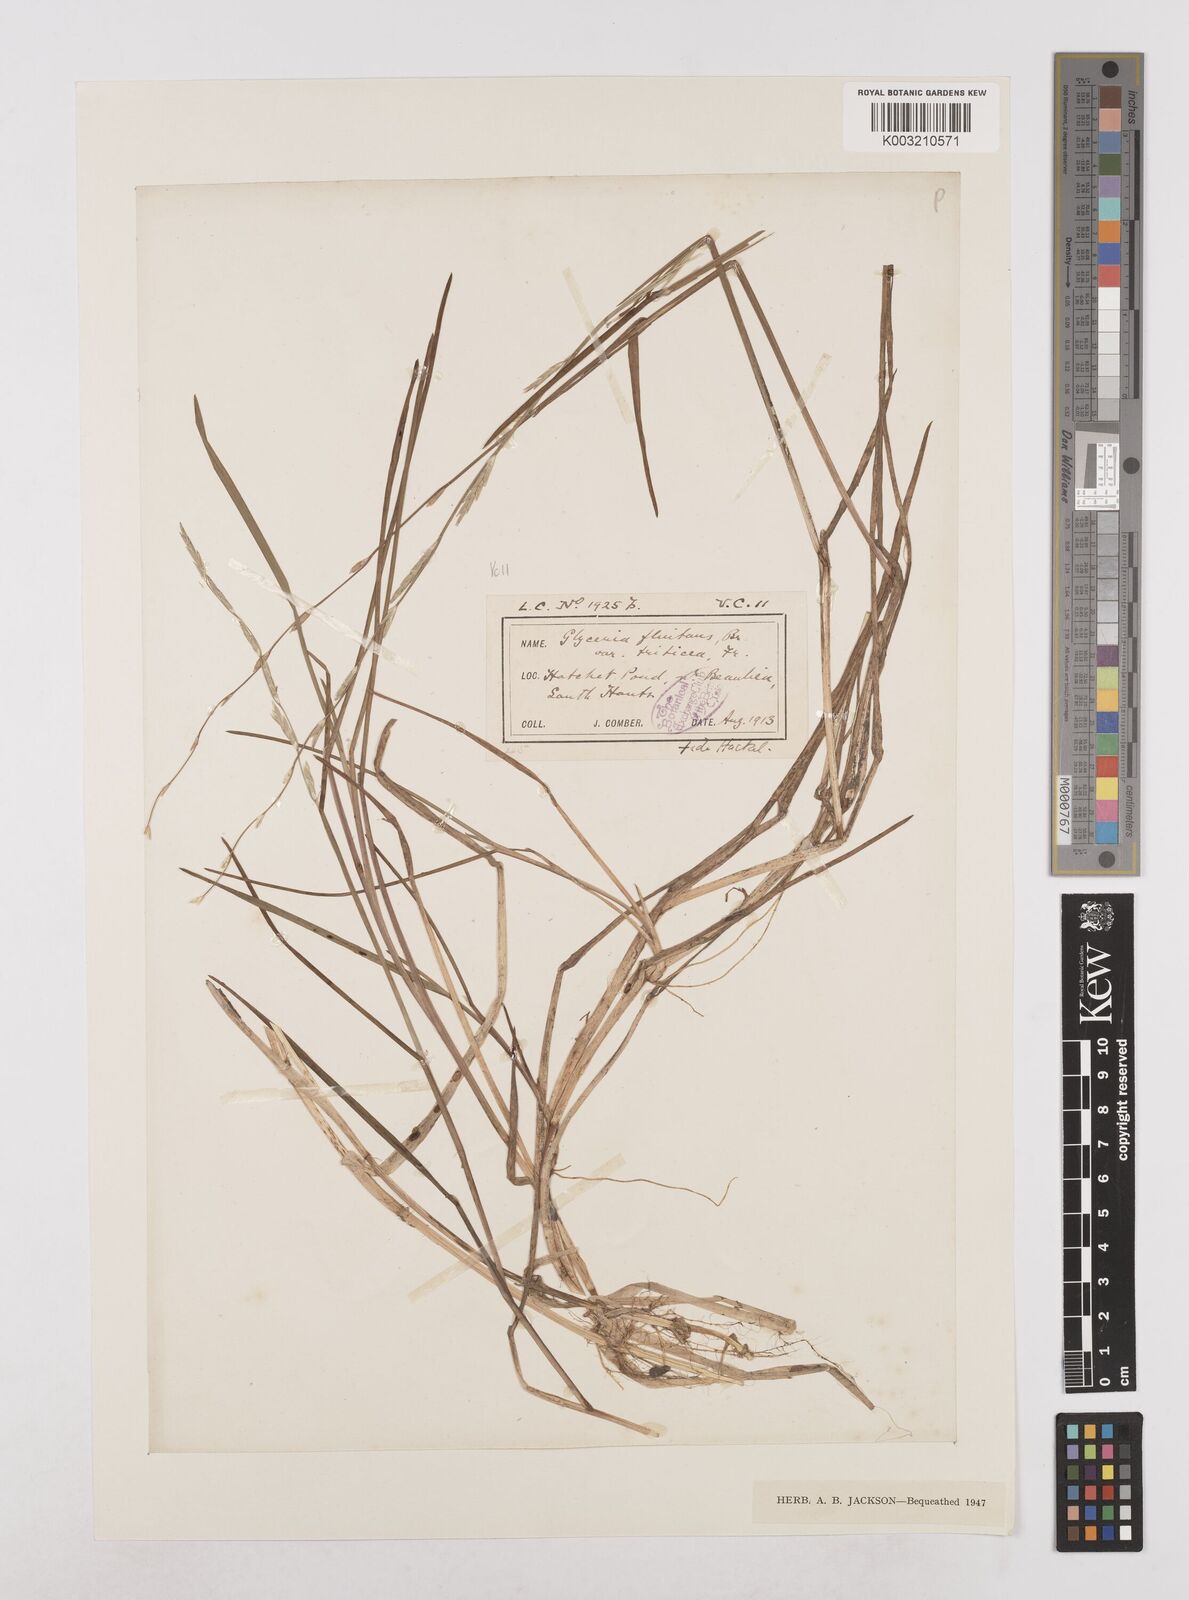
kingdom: Plantae
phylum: Tracheophyta
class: Liliopsida
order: Poales
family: Poaceae
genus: Glyceria
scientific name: Glyceria fluitans
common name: Floating sweet-grass
